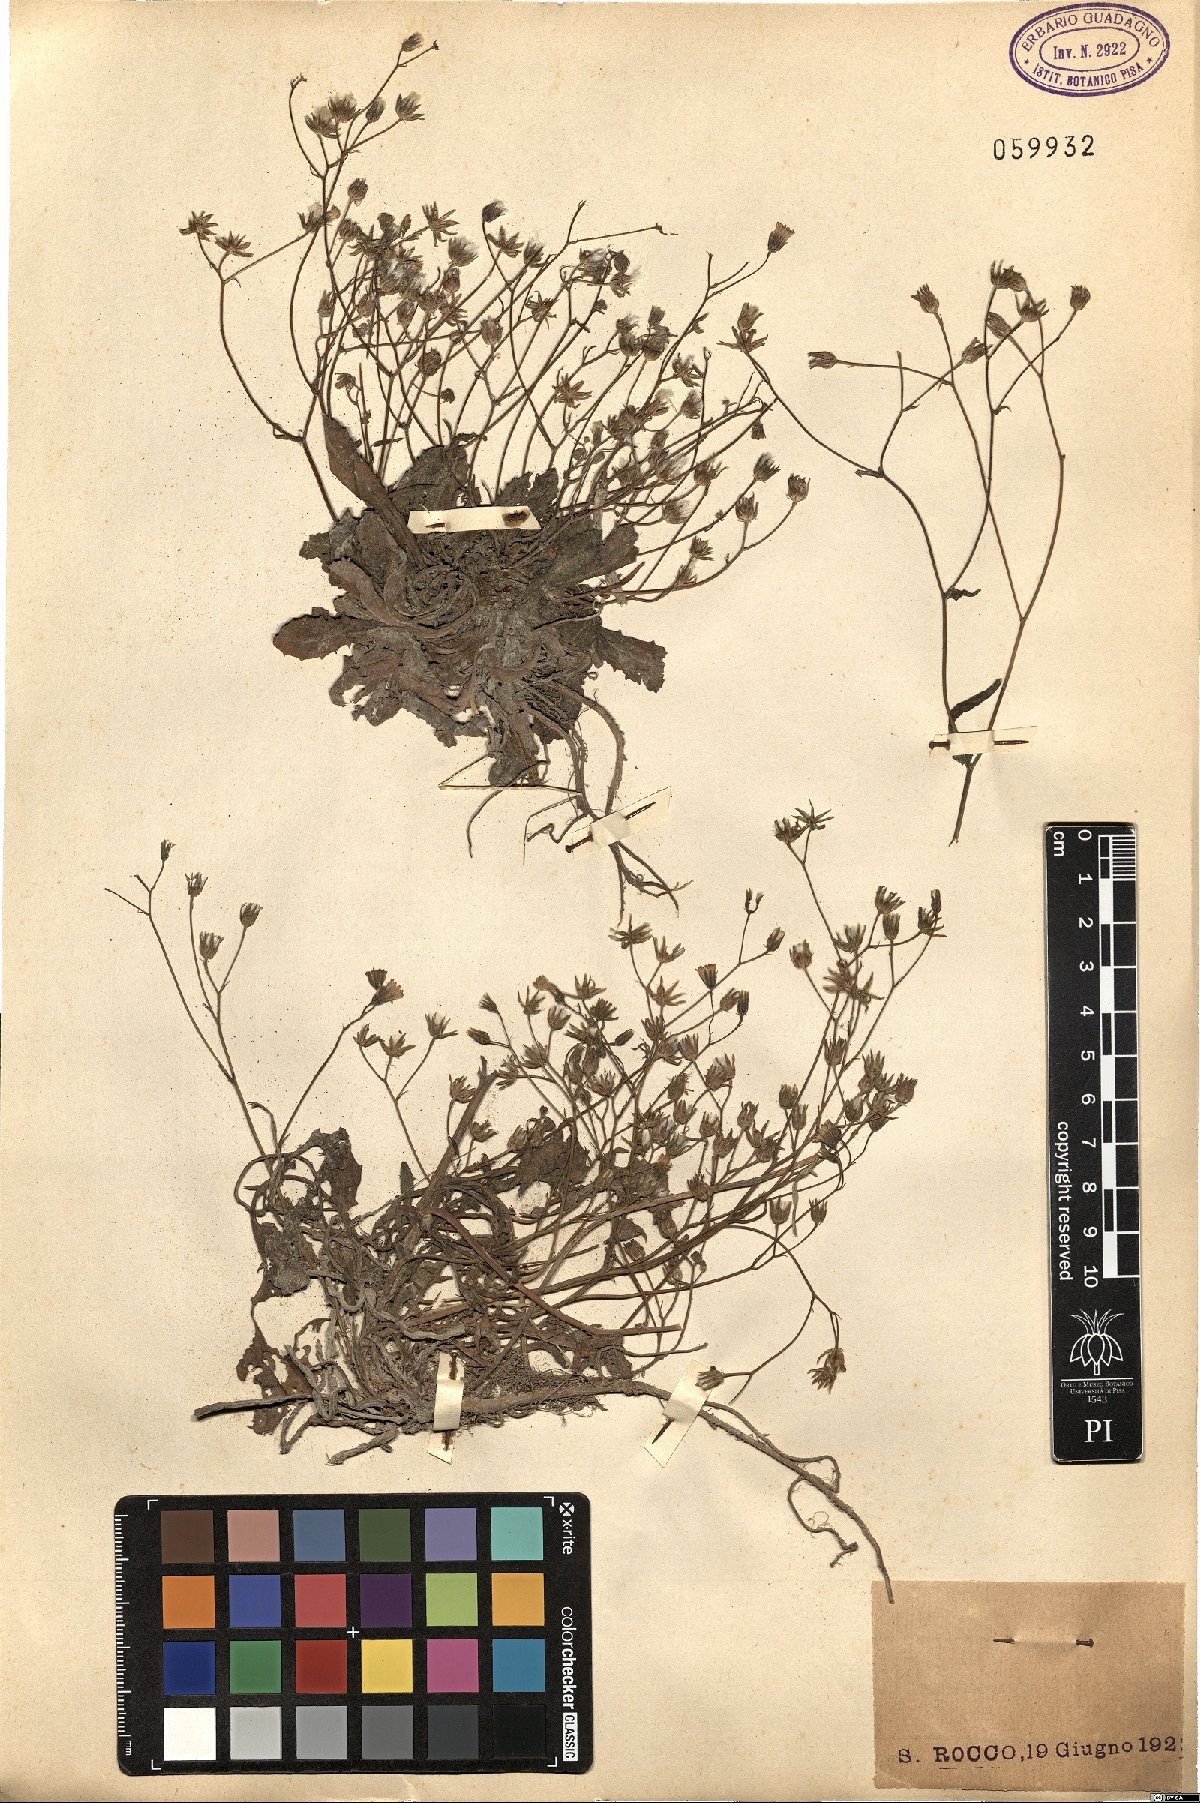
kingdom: Plantae
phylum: Tracheophyta
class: Magnoliopsida
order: Asterales
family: Asteraceae
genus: Crepis
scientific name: Crepis
